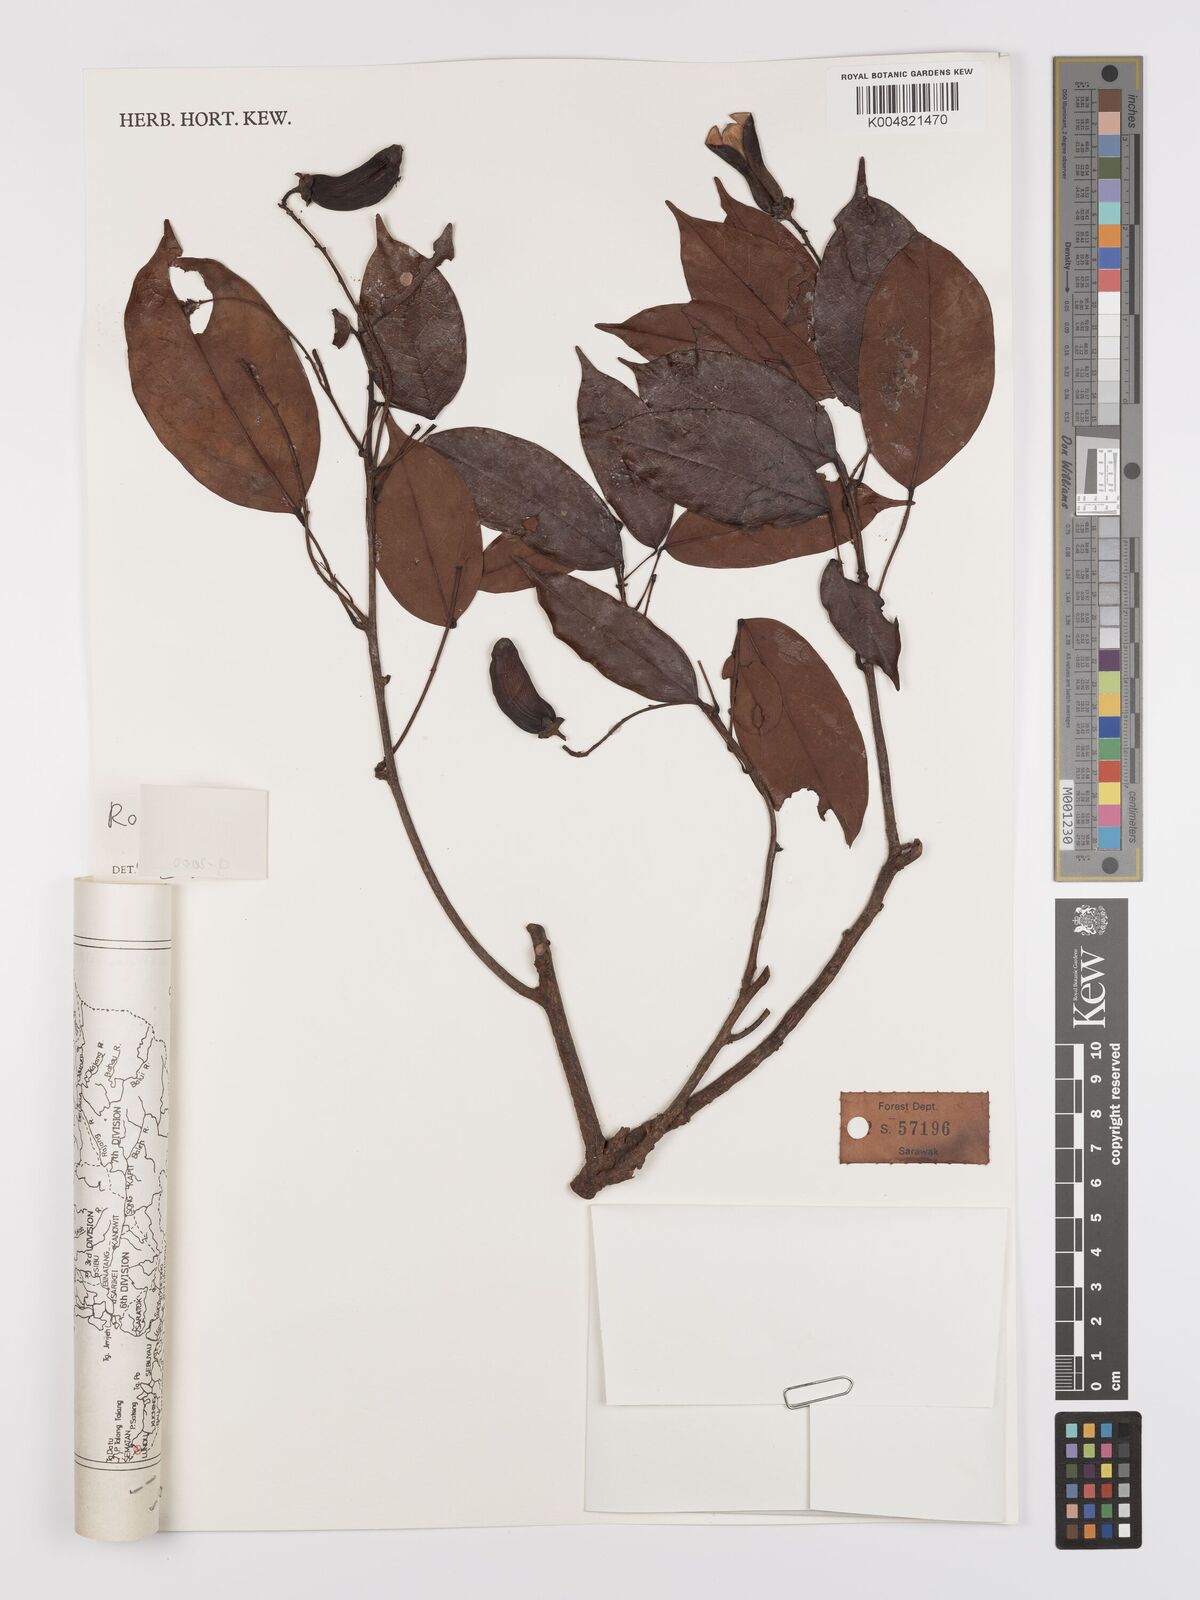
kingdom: Plantae
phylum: Tracheophyta
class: Magnoliopsida
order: Oxalidales
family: Connaraceae
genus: Rourea
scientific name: Rourea
